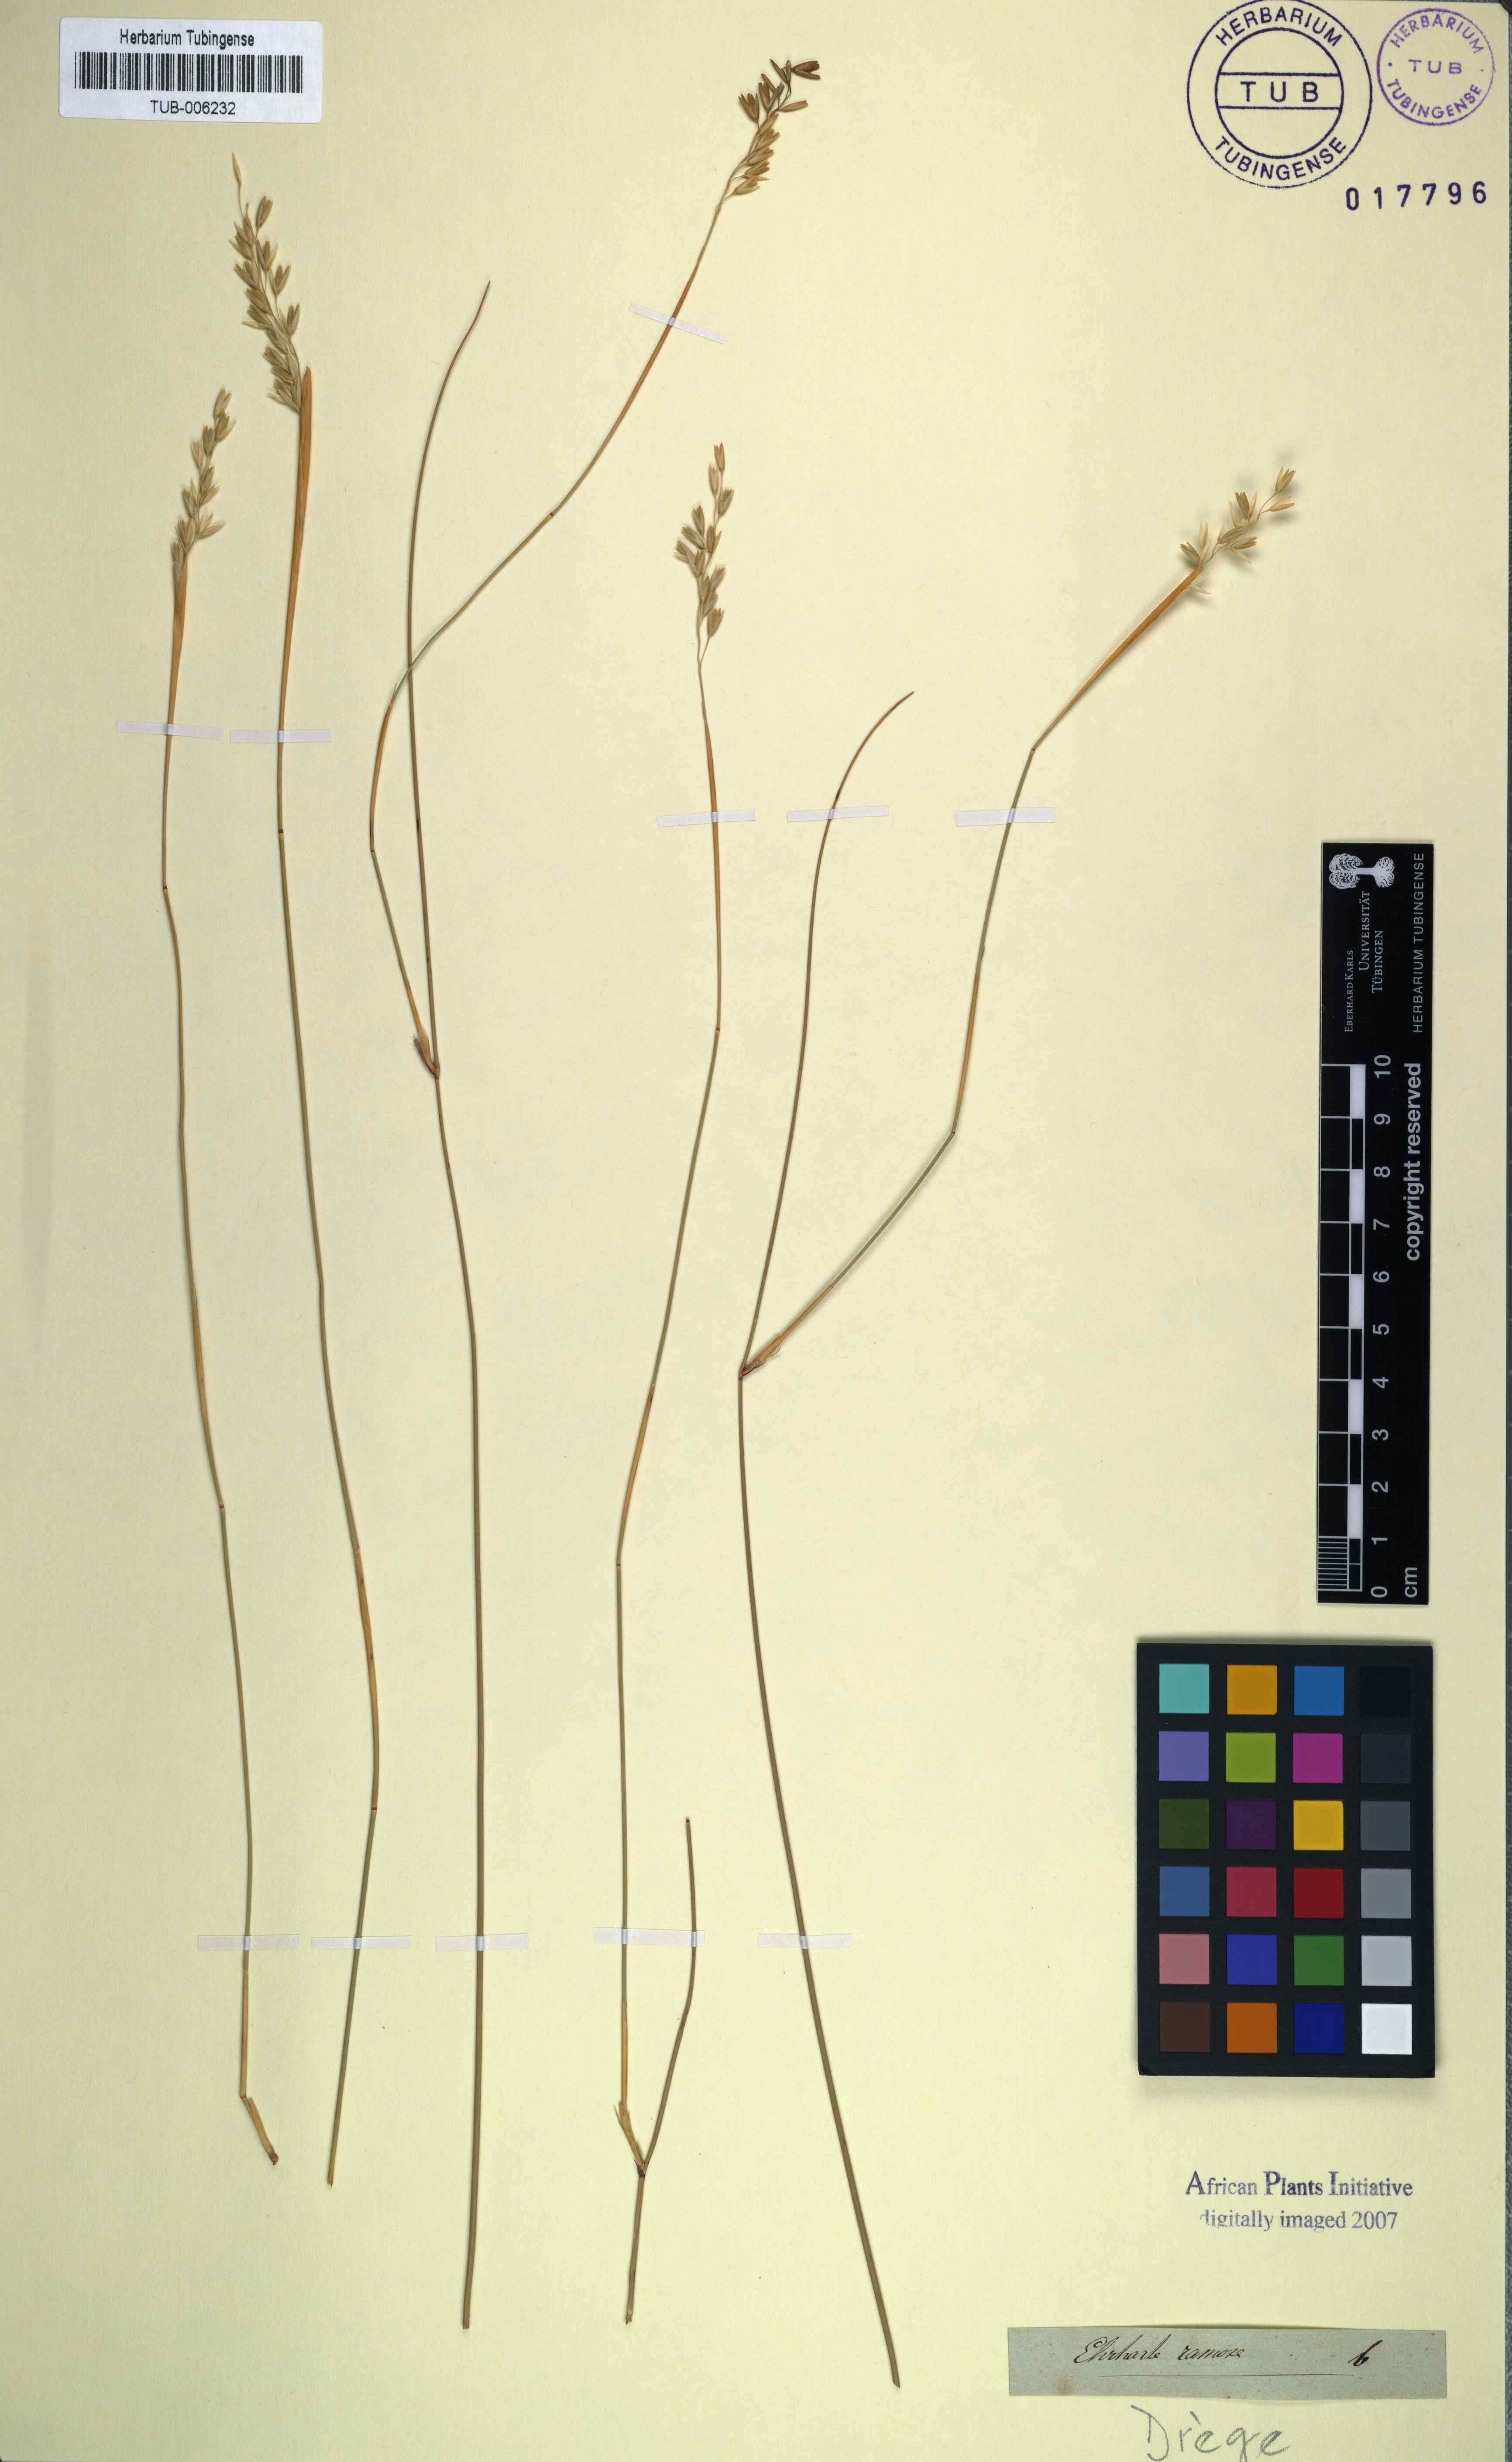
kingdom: Plantae
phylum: Tracheophyta
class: Liliopsida
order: Poales
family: Poaceae
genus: Ehrharta
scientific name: Ehrharta ramosa
